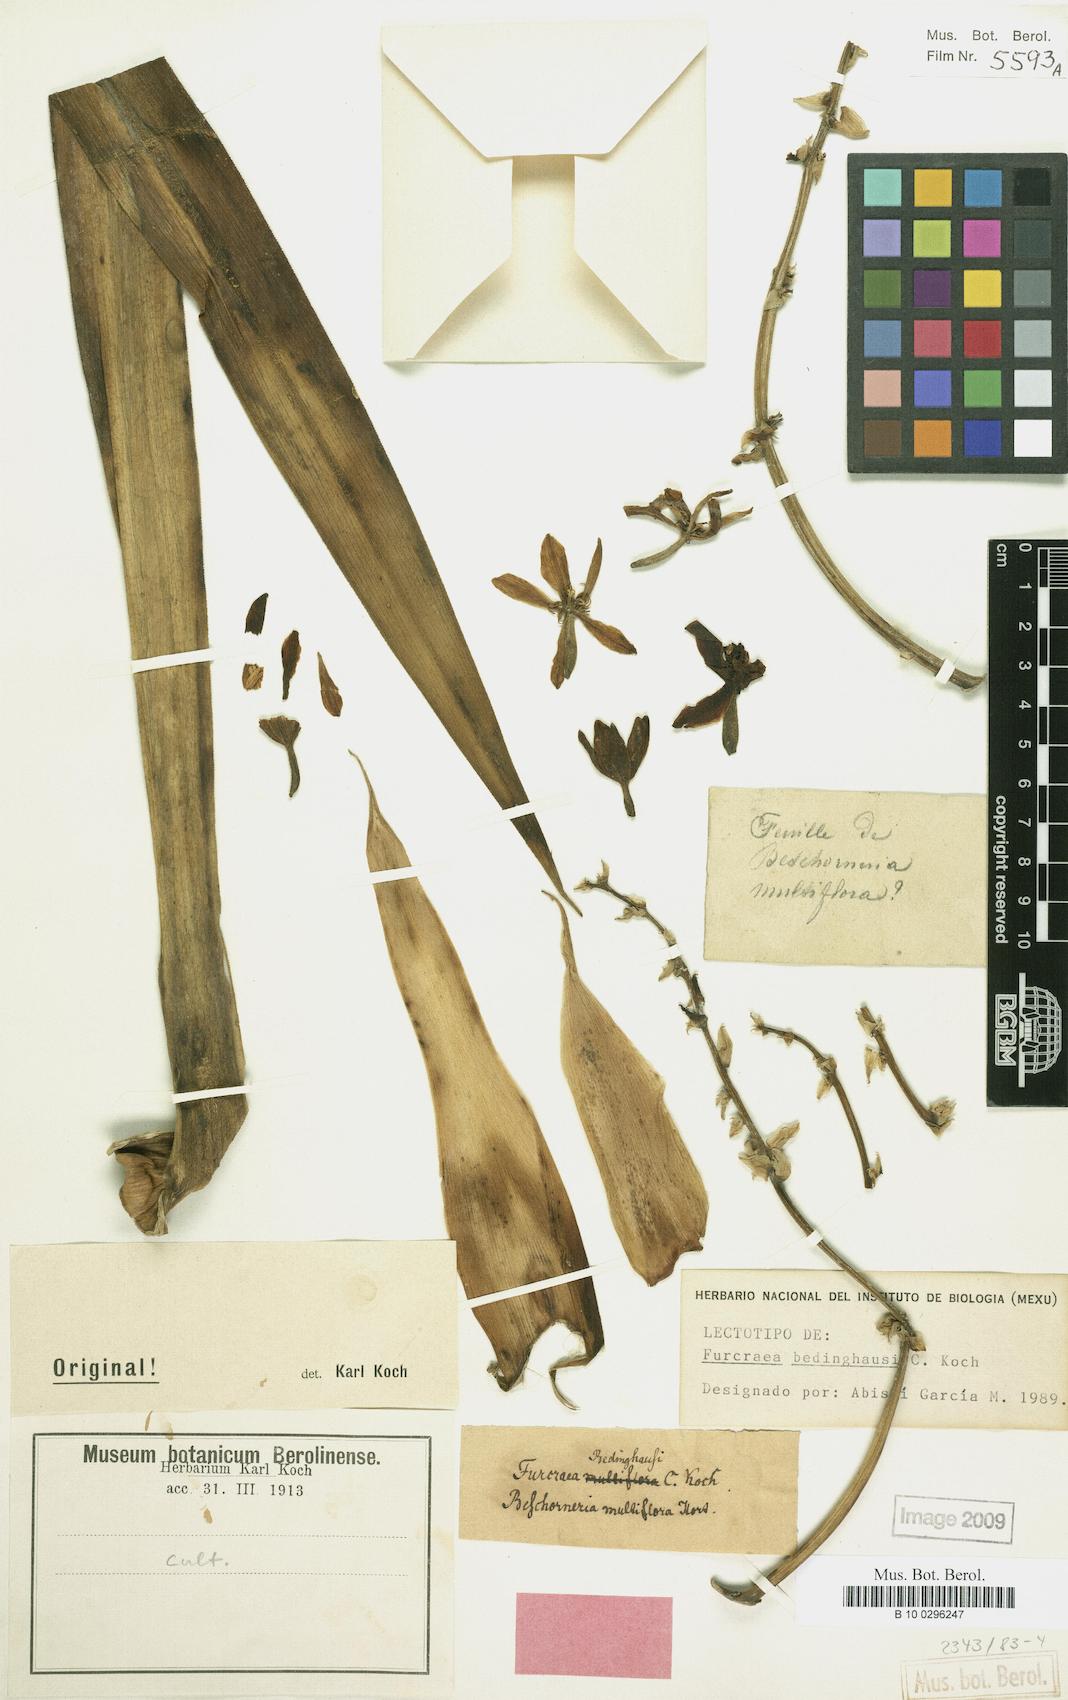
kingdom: Plantae
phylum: Tracheophyta
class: Liliopsida
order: Asparagales
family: Asparagaceae
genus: Furcraea
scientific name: Furcraea parmentieri
